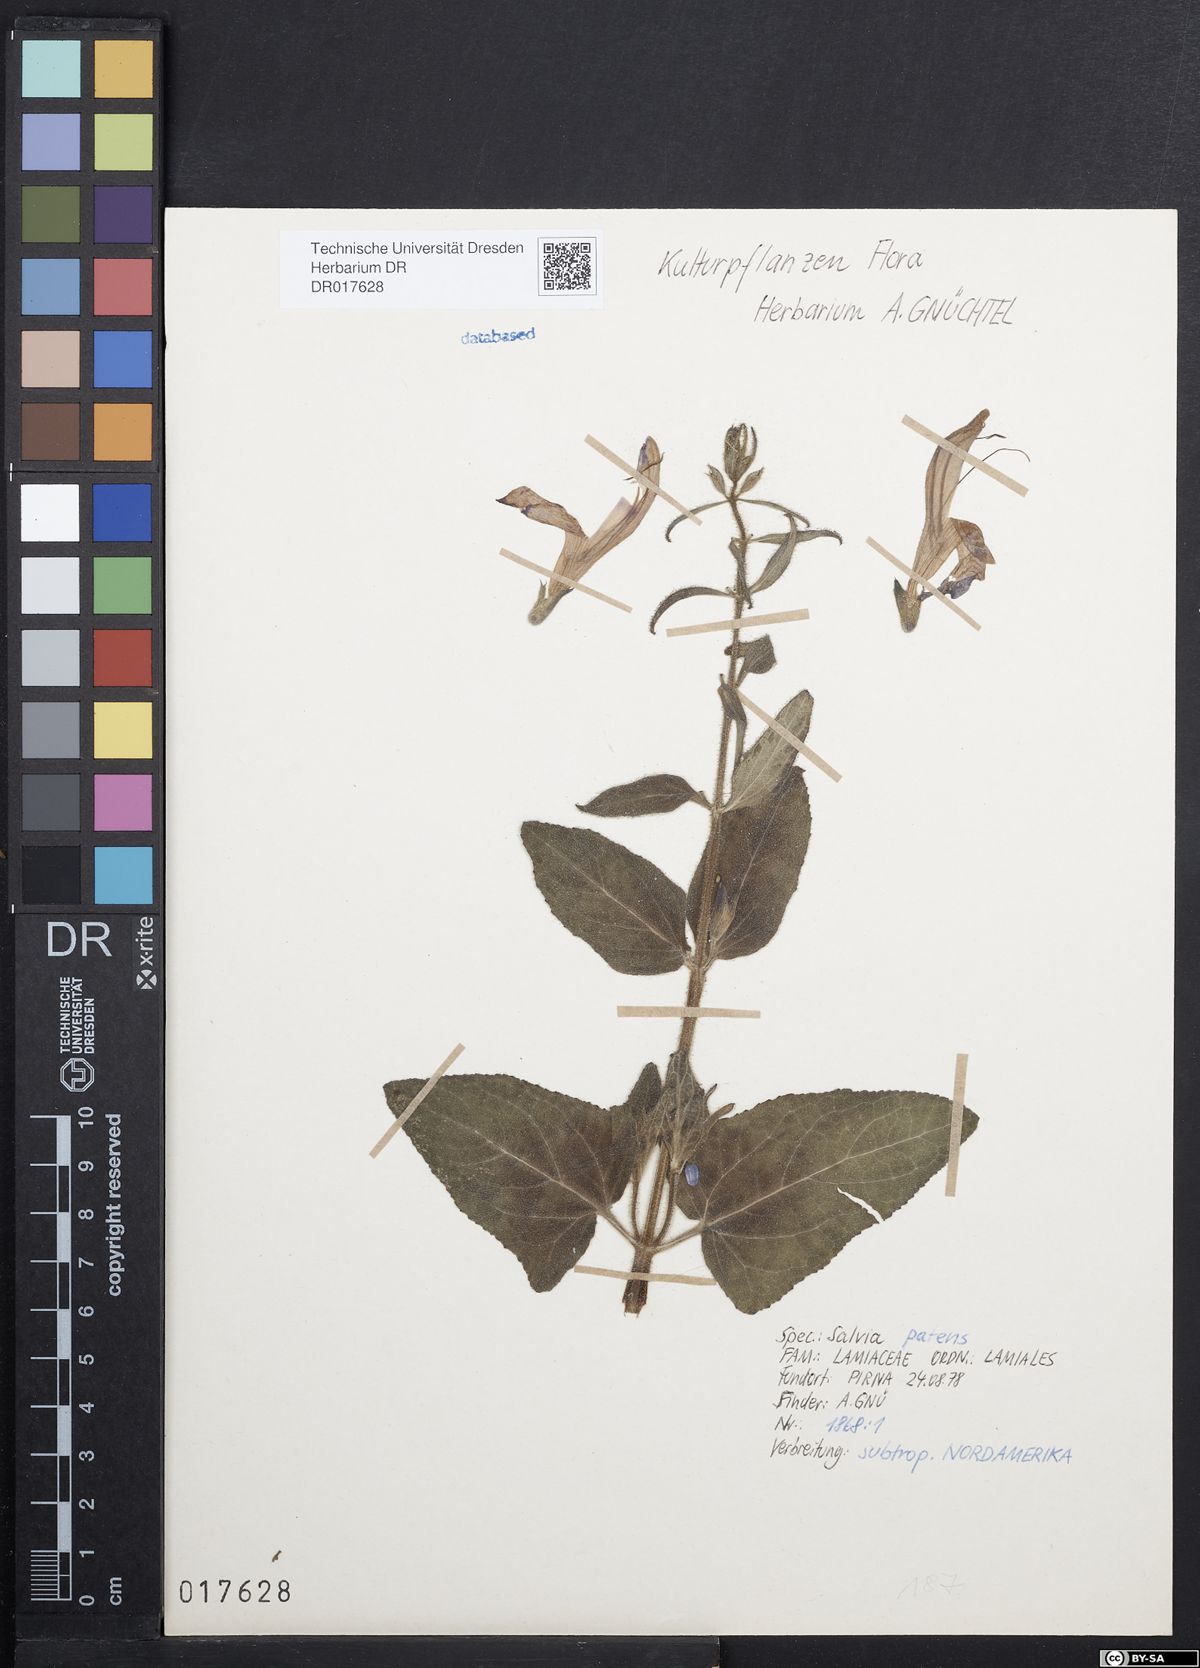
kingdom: Plantae
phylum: Tracheophyta
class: Magnoliopsida
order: Lamiales
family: Lamiaceae
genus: Salvia
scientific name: Salvia patens
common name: Blue sage
